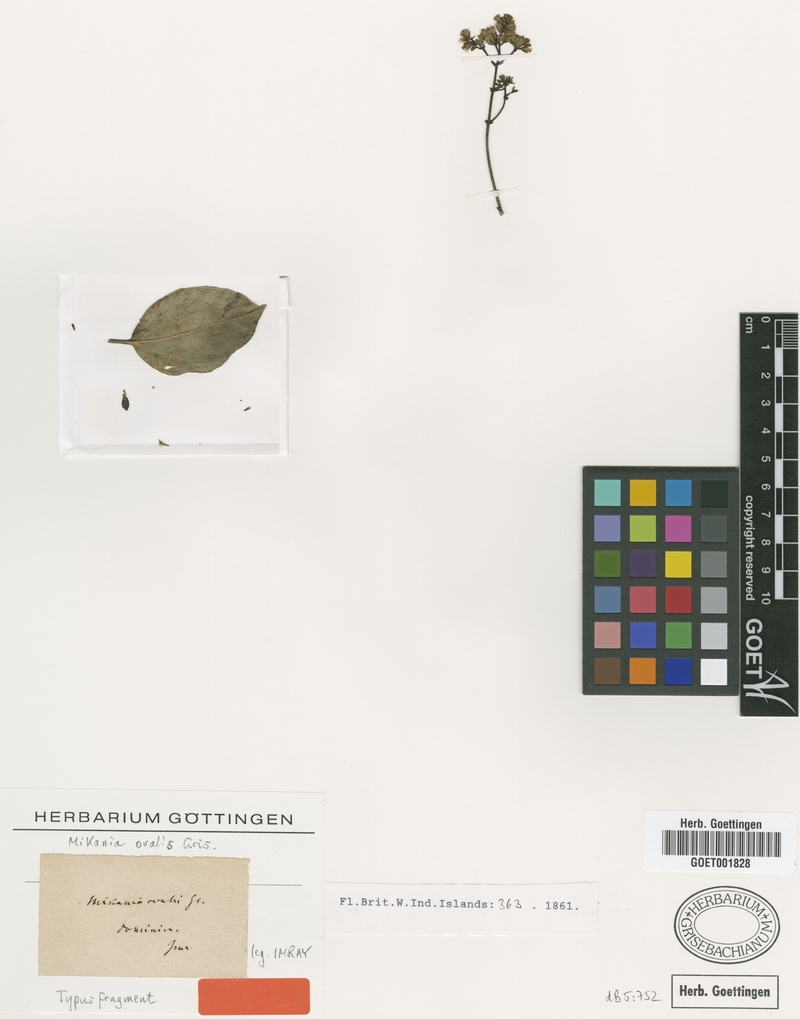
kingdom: Plantae
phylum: Tracheophyta
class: Magnoliopsida
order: Asterales
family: Asteraceae
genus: Mikania
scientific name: Mikania ovalis
